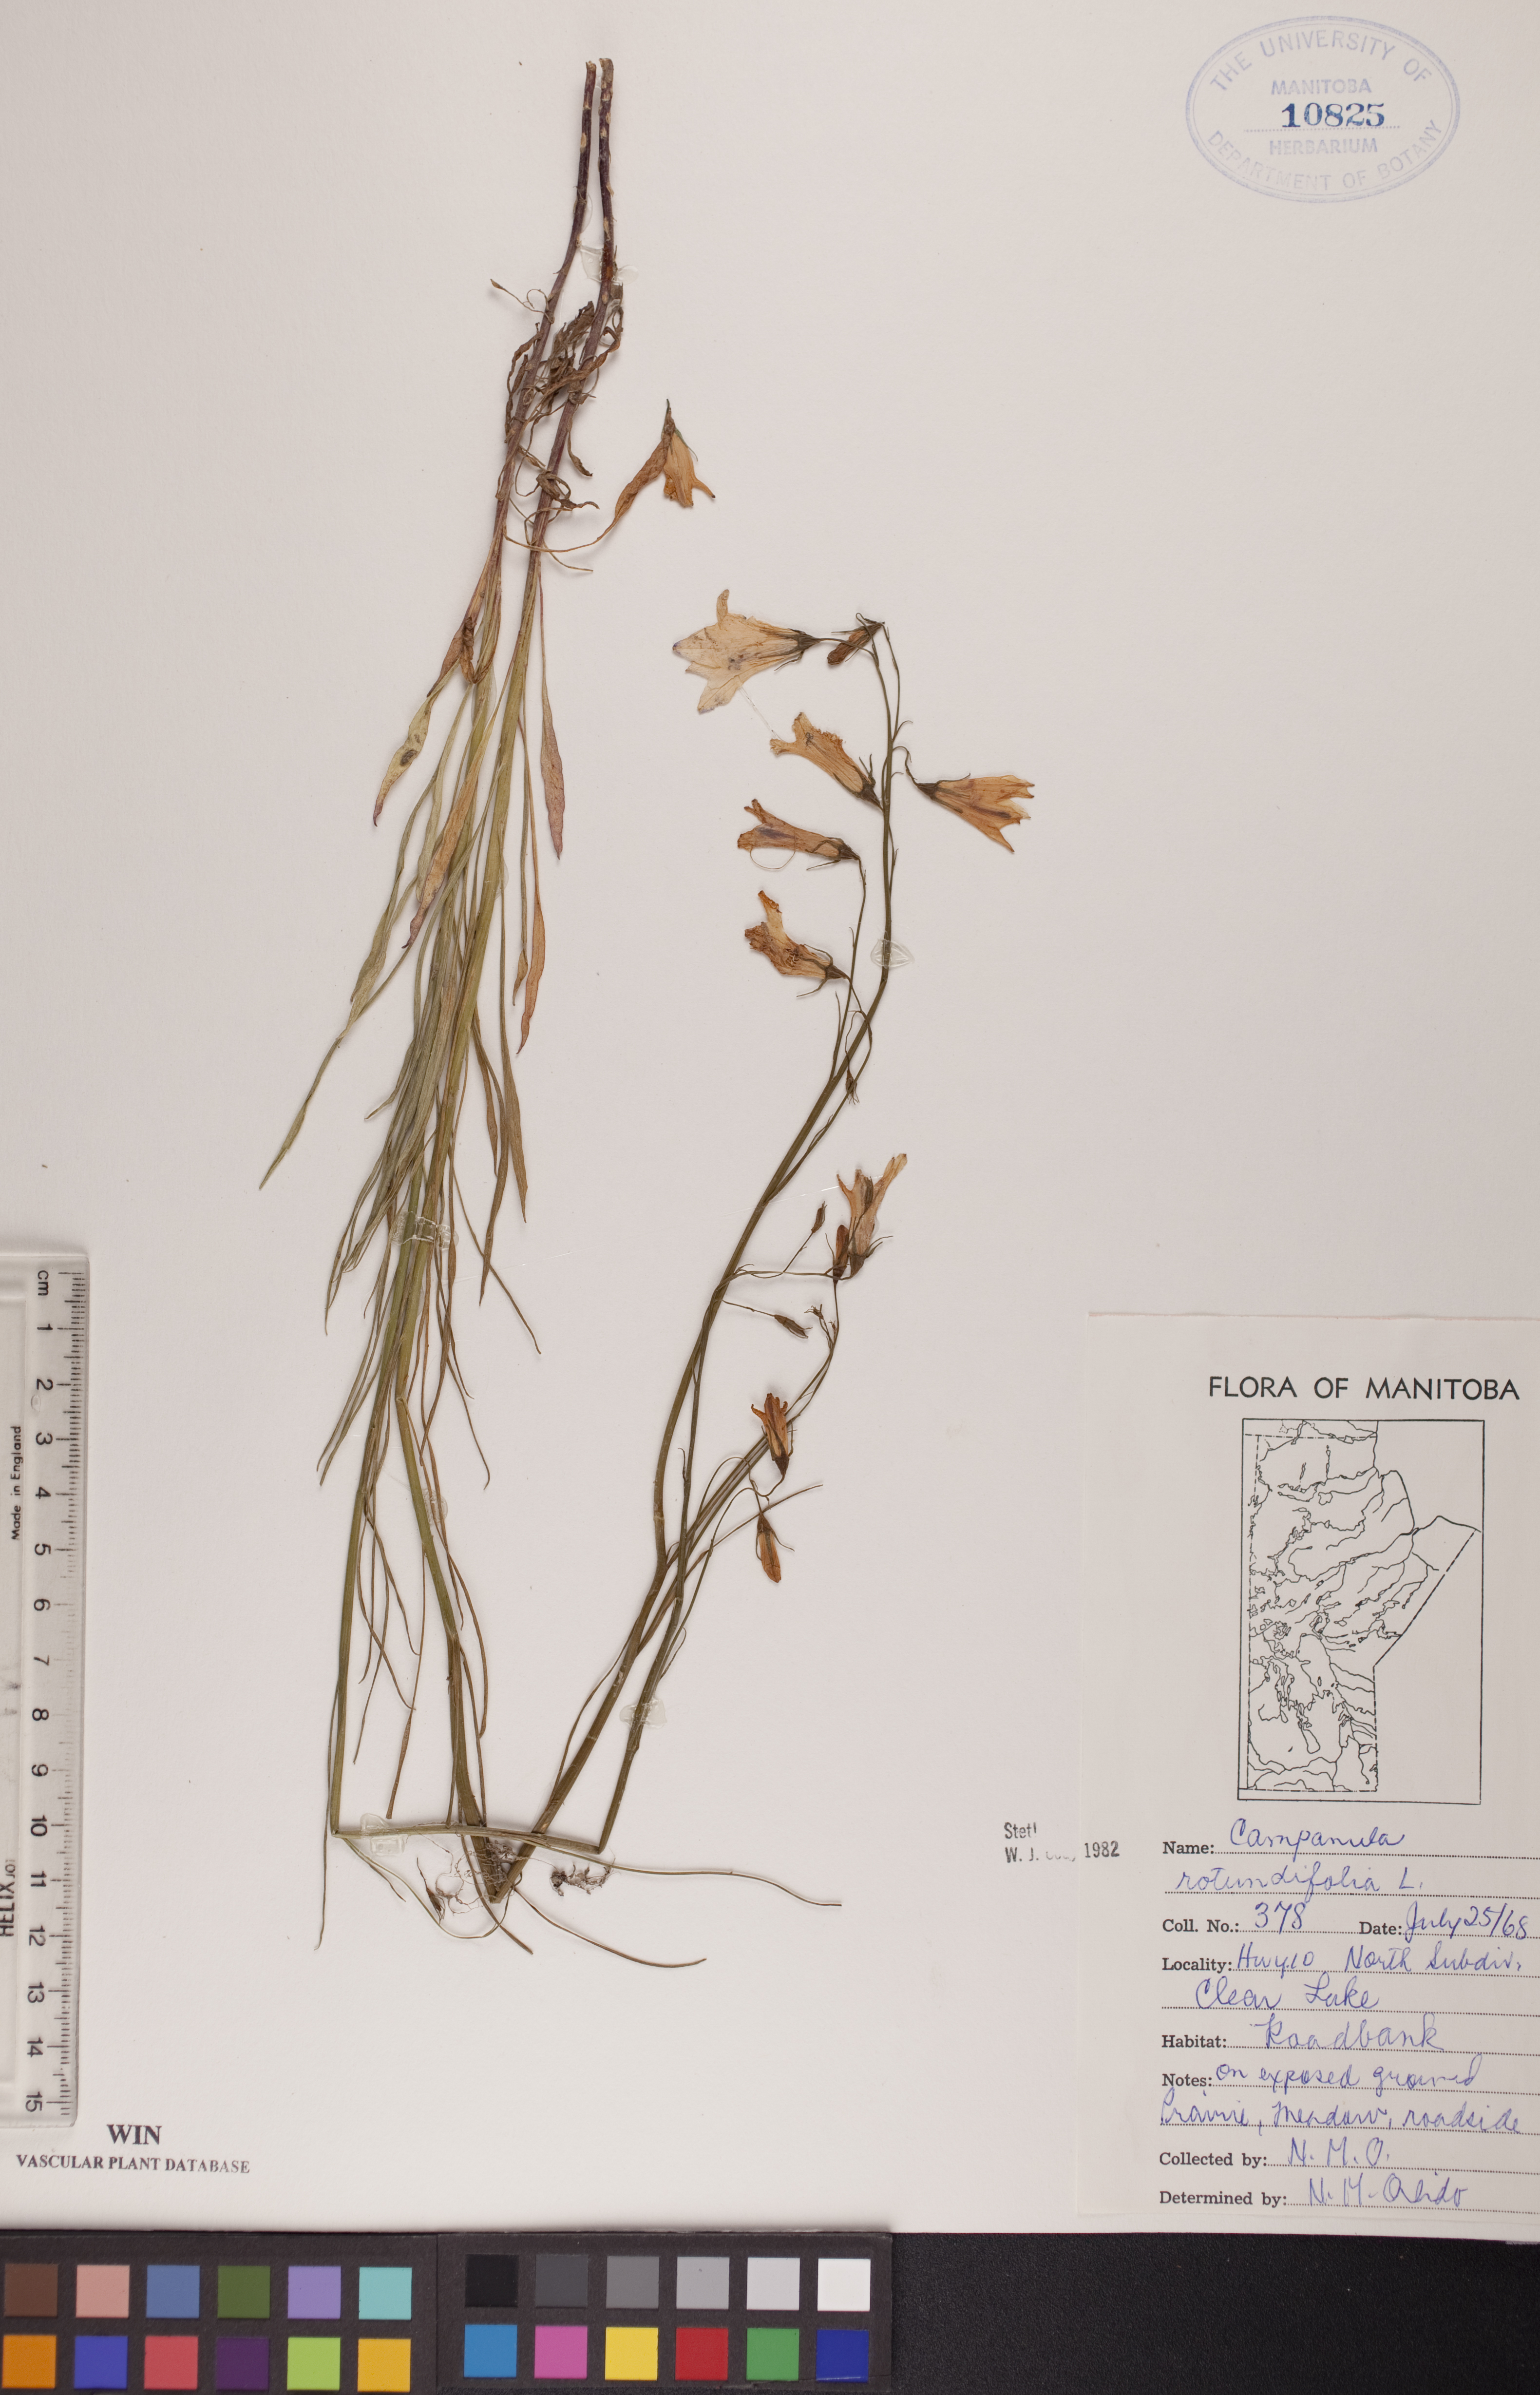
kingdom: Plantae
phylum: Tracheophyta
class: Magnoliopsida
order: Asterales
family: Campanulaceae
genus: Campanula
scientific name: Campanula rotundifolia
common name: Harebell
